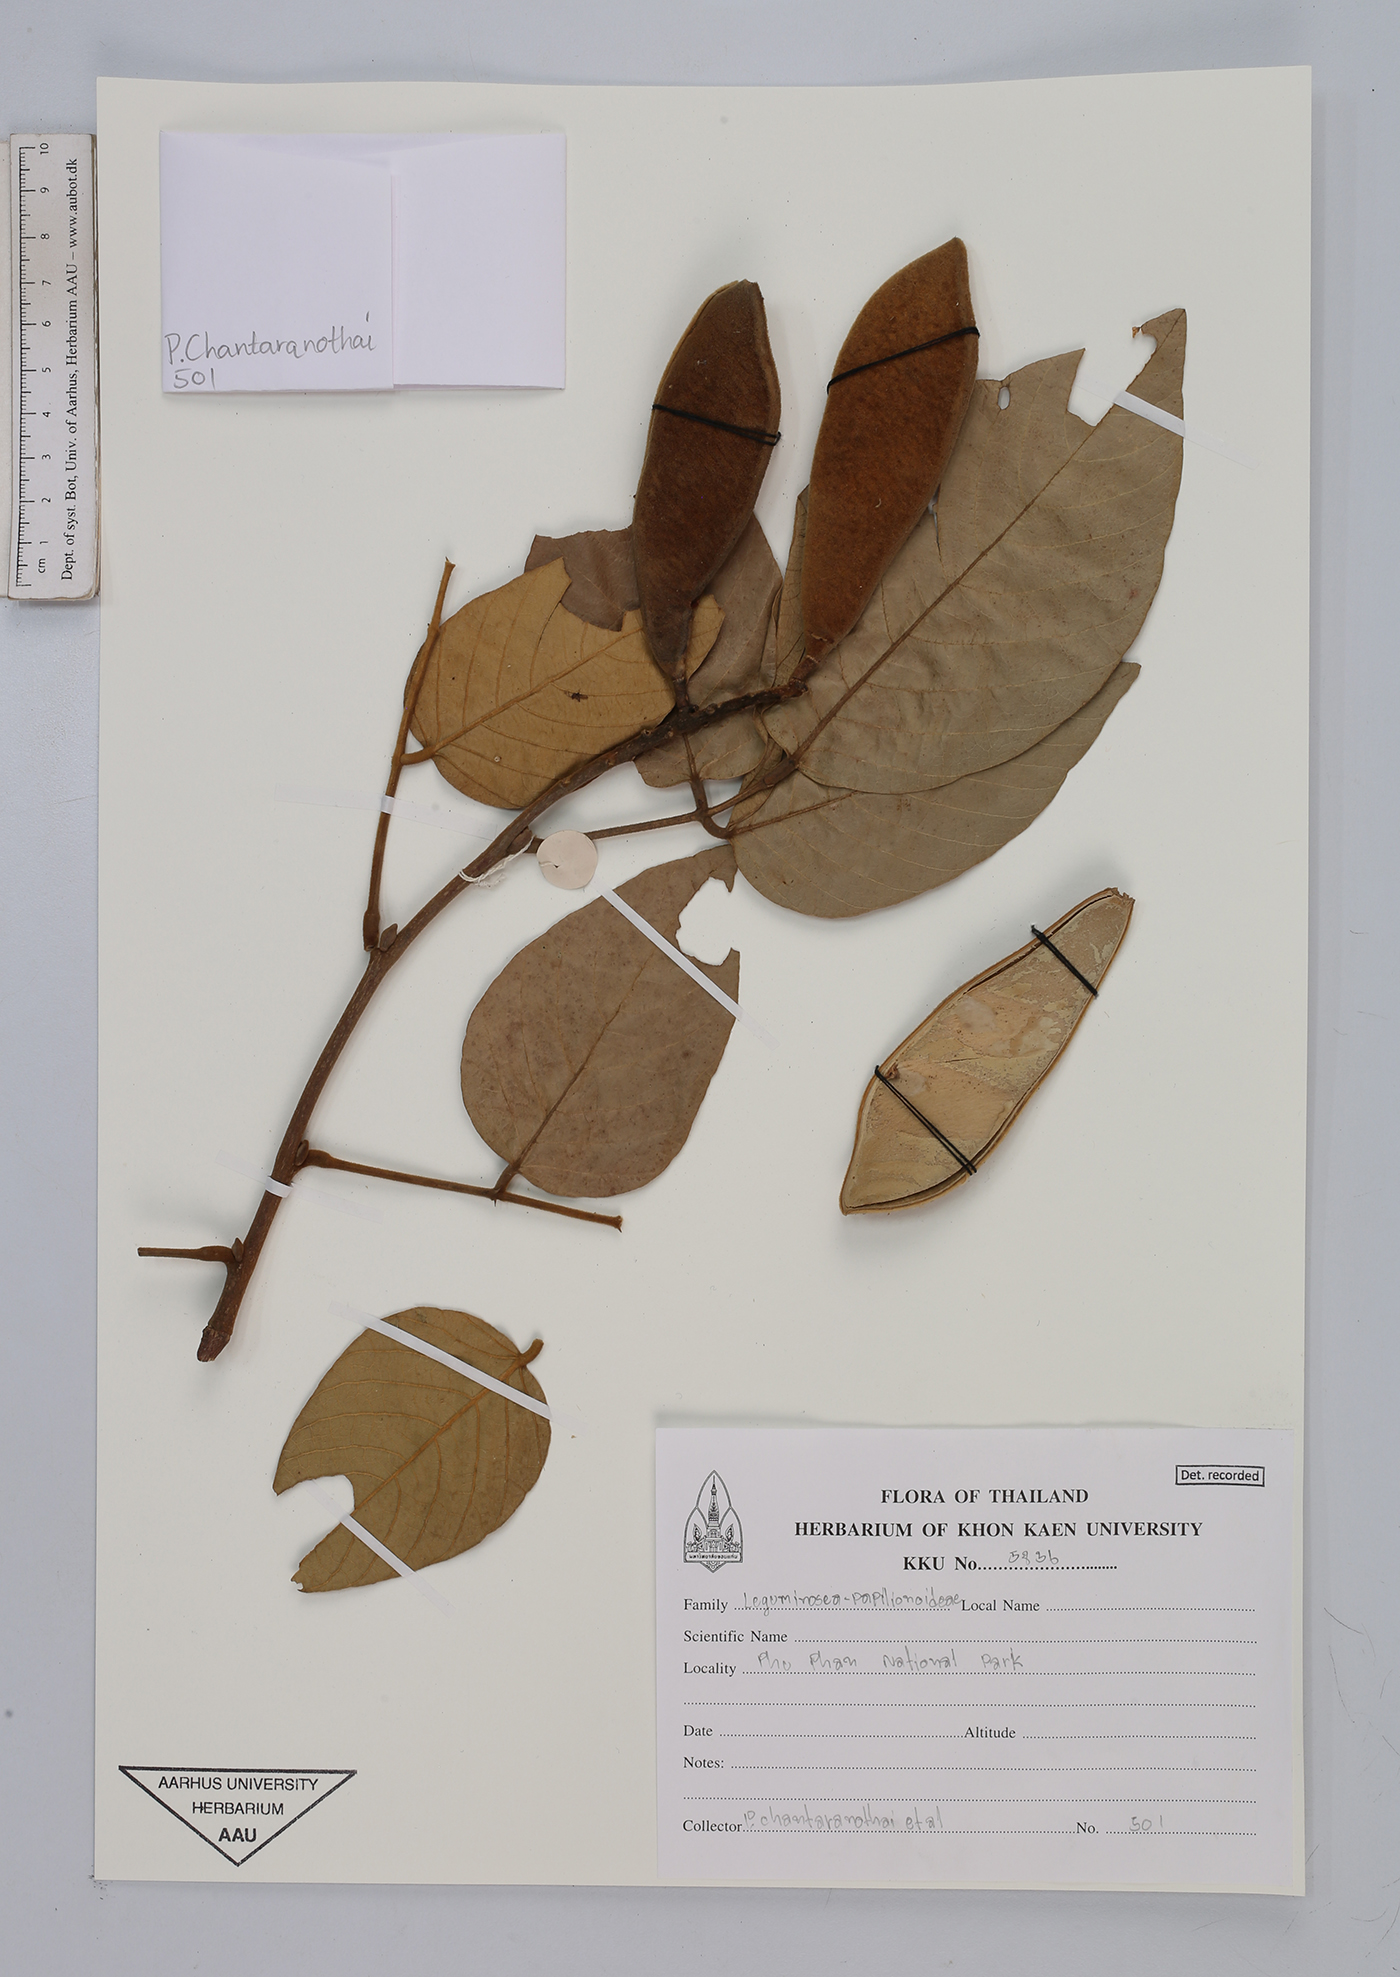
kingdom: Plantae
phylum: Tracheophyta
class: Magnoliopsida
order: Fabales
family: Fabaceae
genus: Millettia
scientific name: Millettia
